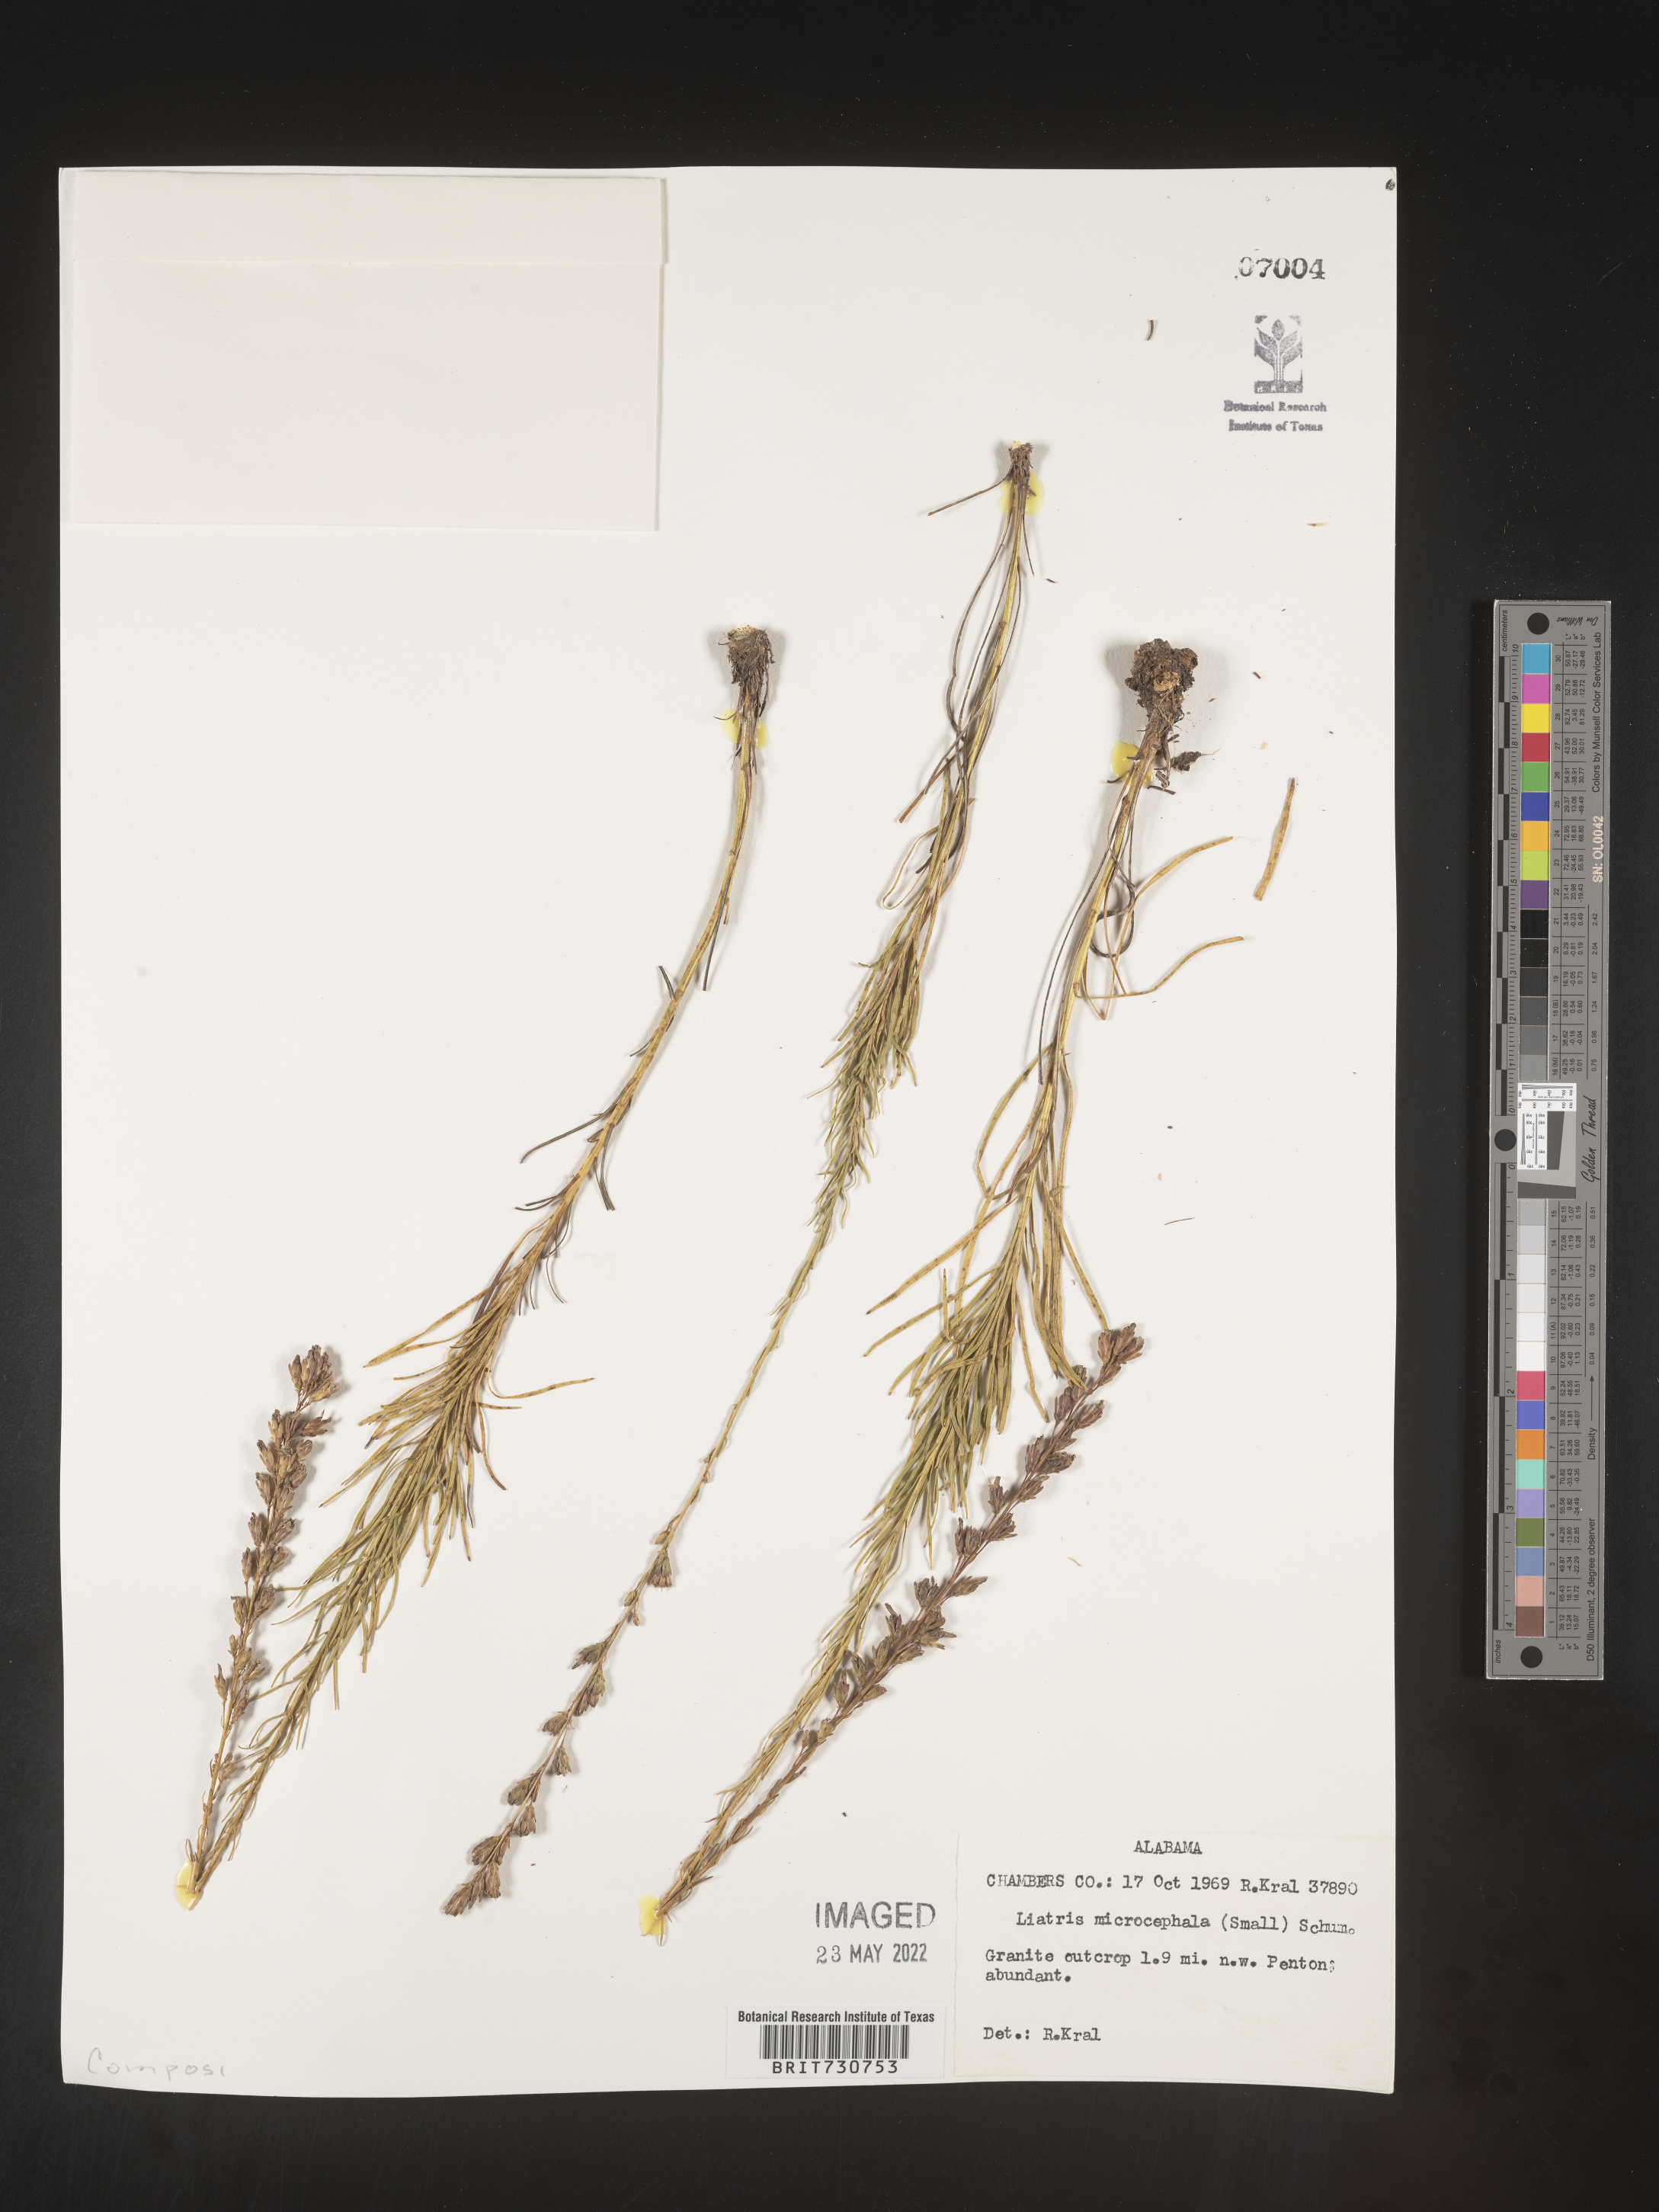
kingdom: Plantae
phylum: Tracheophyta
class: Magnoliopsida
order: Asterales
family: Asteraceae
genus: Liatris
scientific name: Liatris microcephala
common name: Small-head gayfeather
